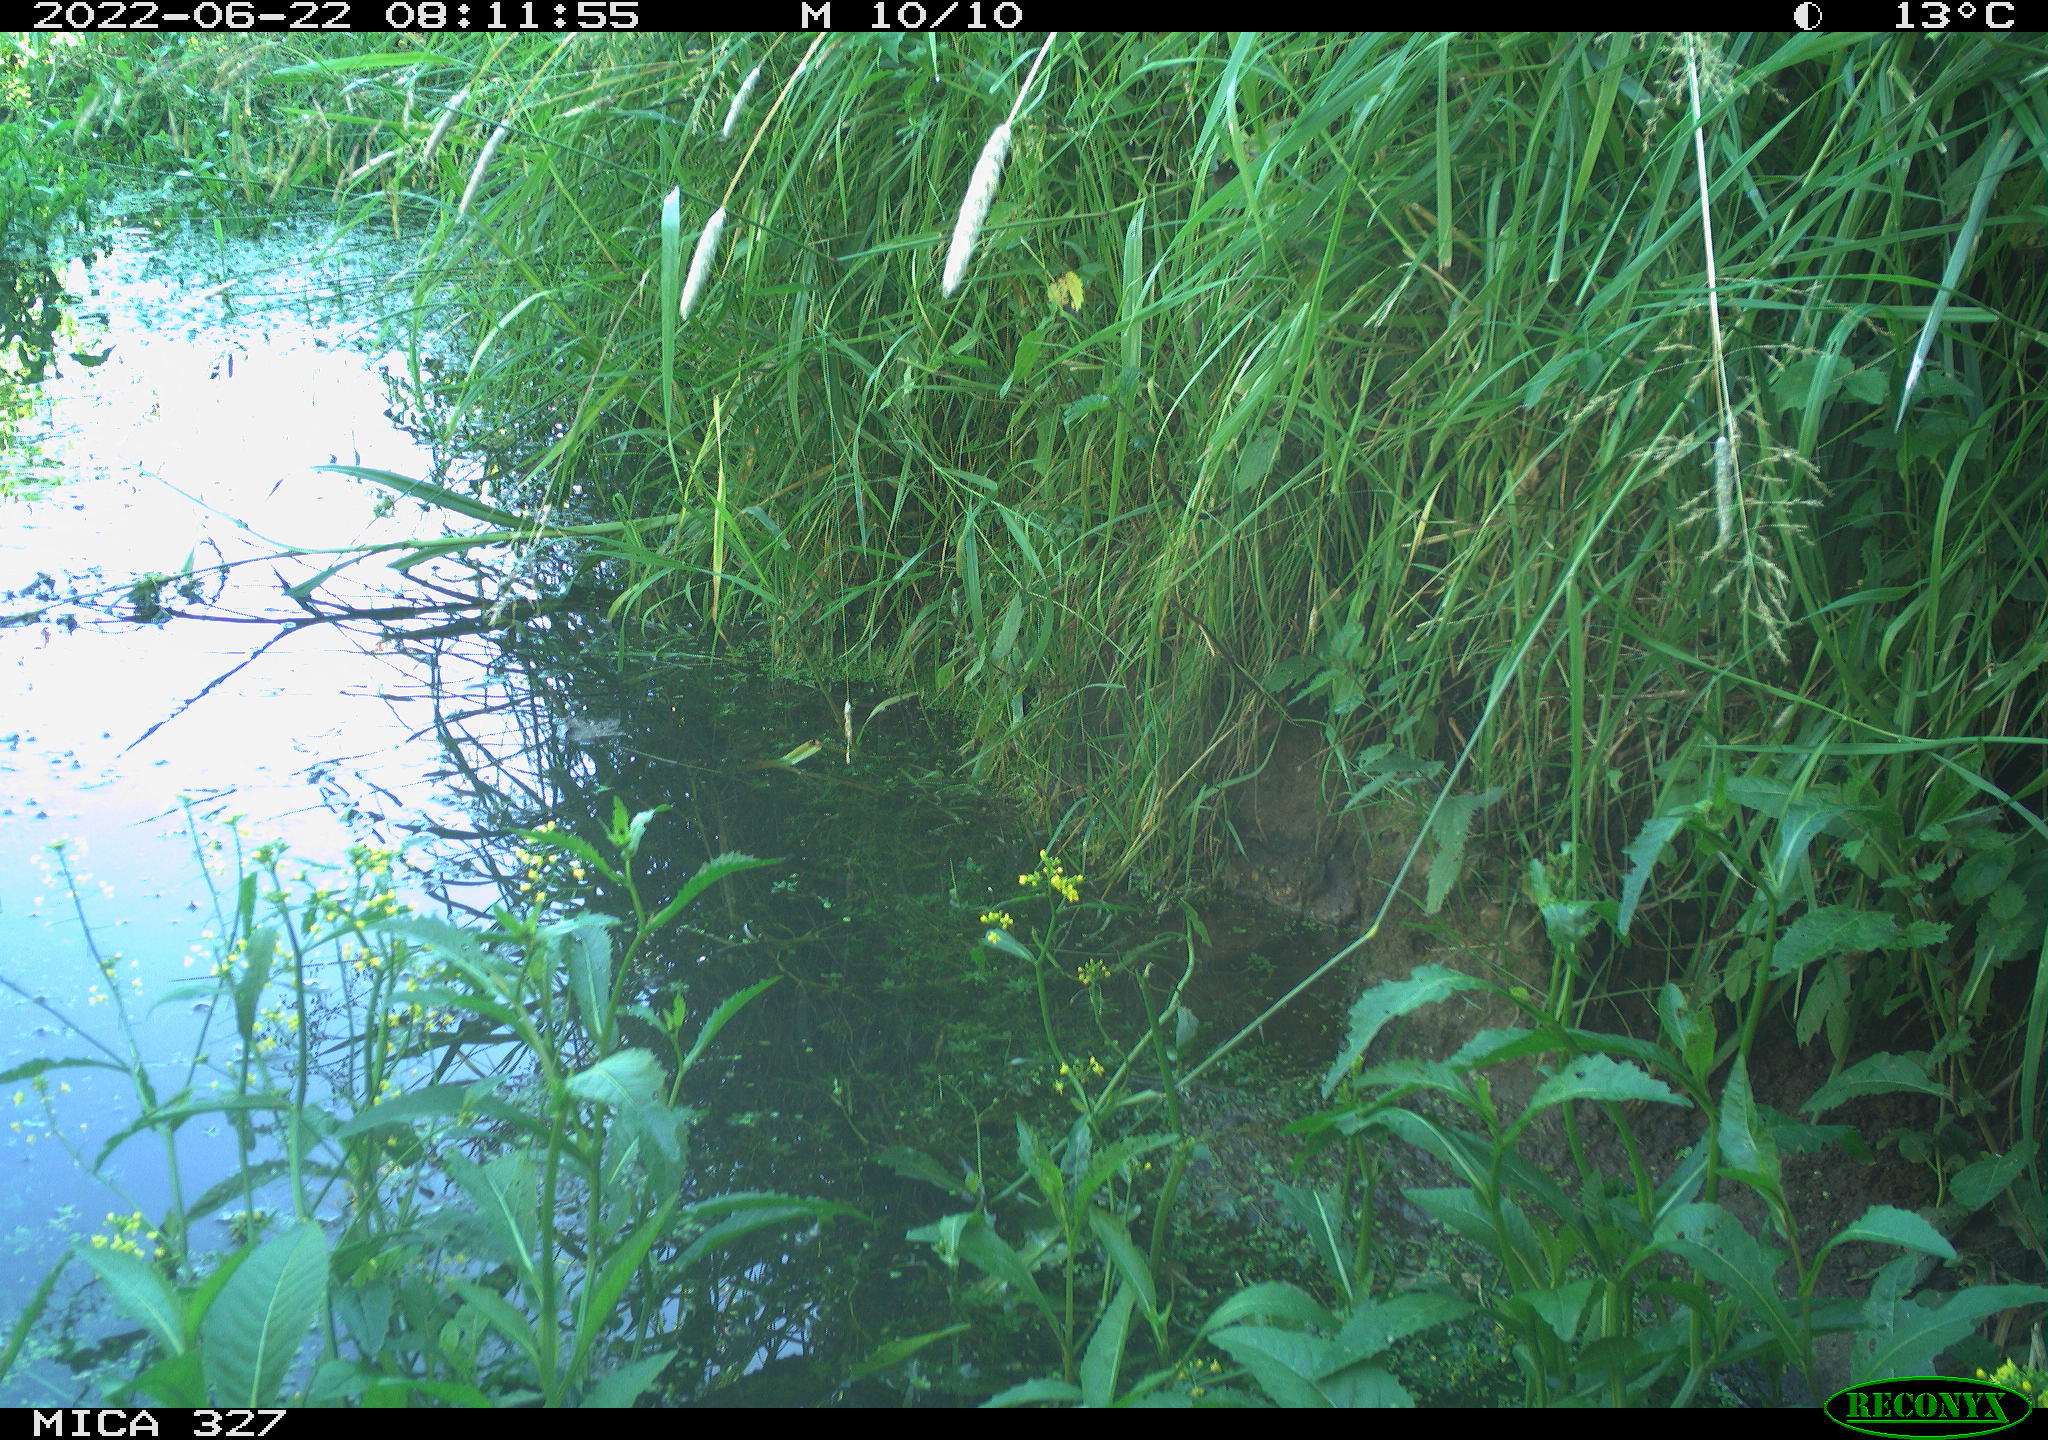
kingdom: Animalia
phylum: Chordata
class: Aves
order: Gruiformes
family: Rallidae
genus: Gallinula
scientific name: Gallinula chloropus
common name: Common moorhen
